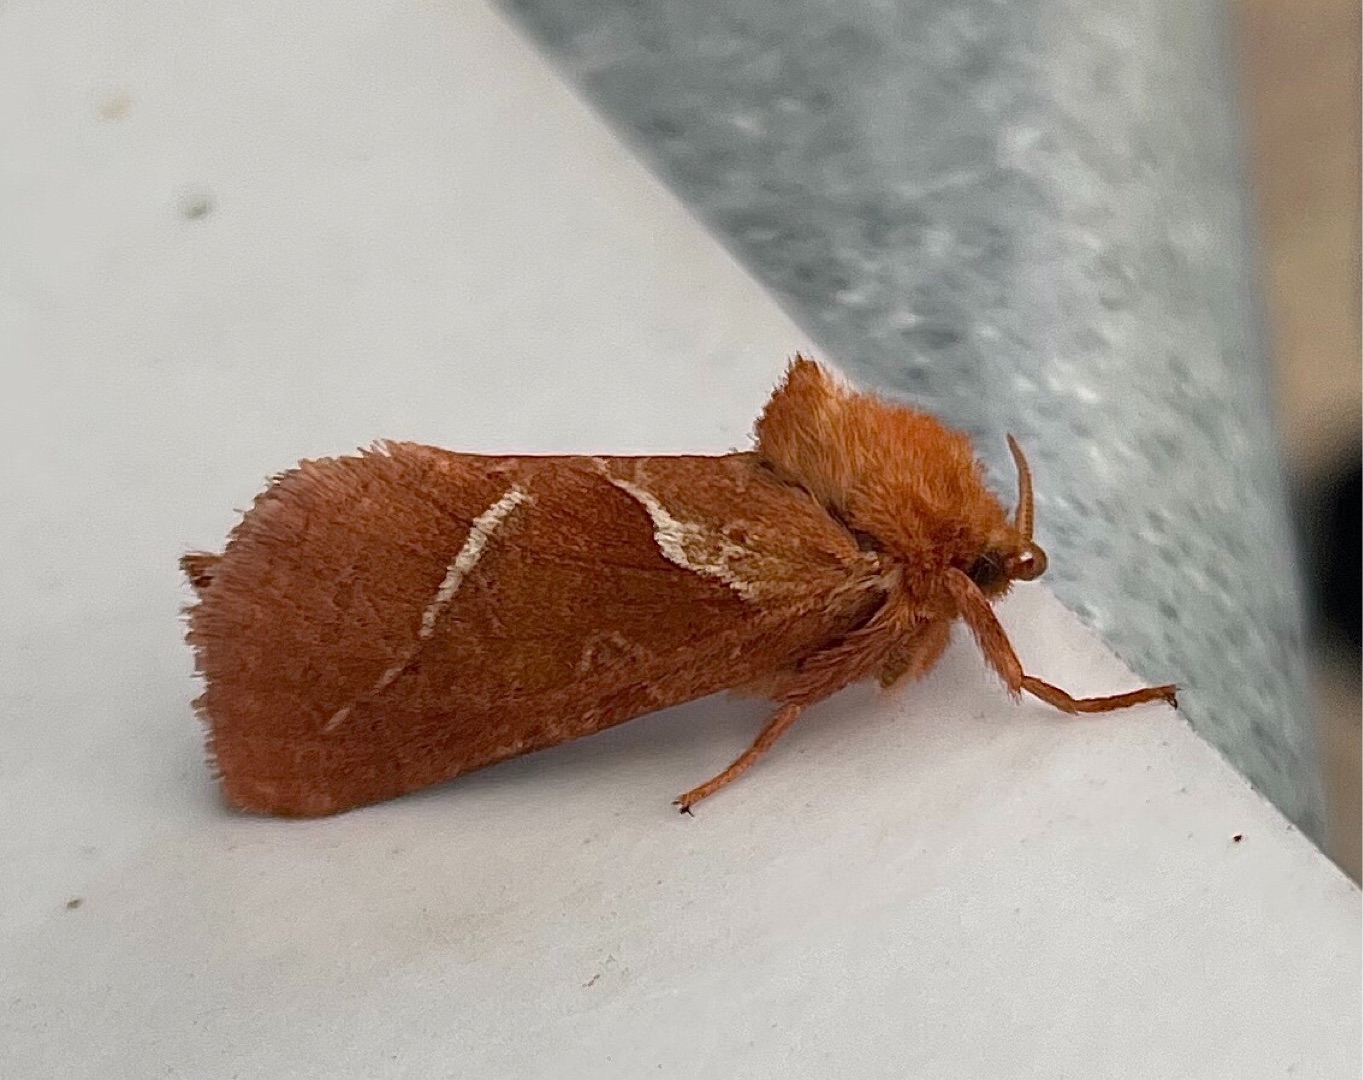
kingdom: Animalia
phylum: Arthropoda
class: Insecta
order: Lepidoptera
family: Hepialidae
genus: Triodia
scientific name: Triodia sylvina
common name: Skræpperodæder
